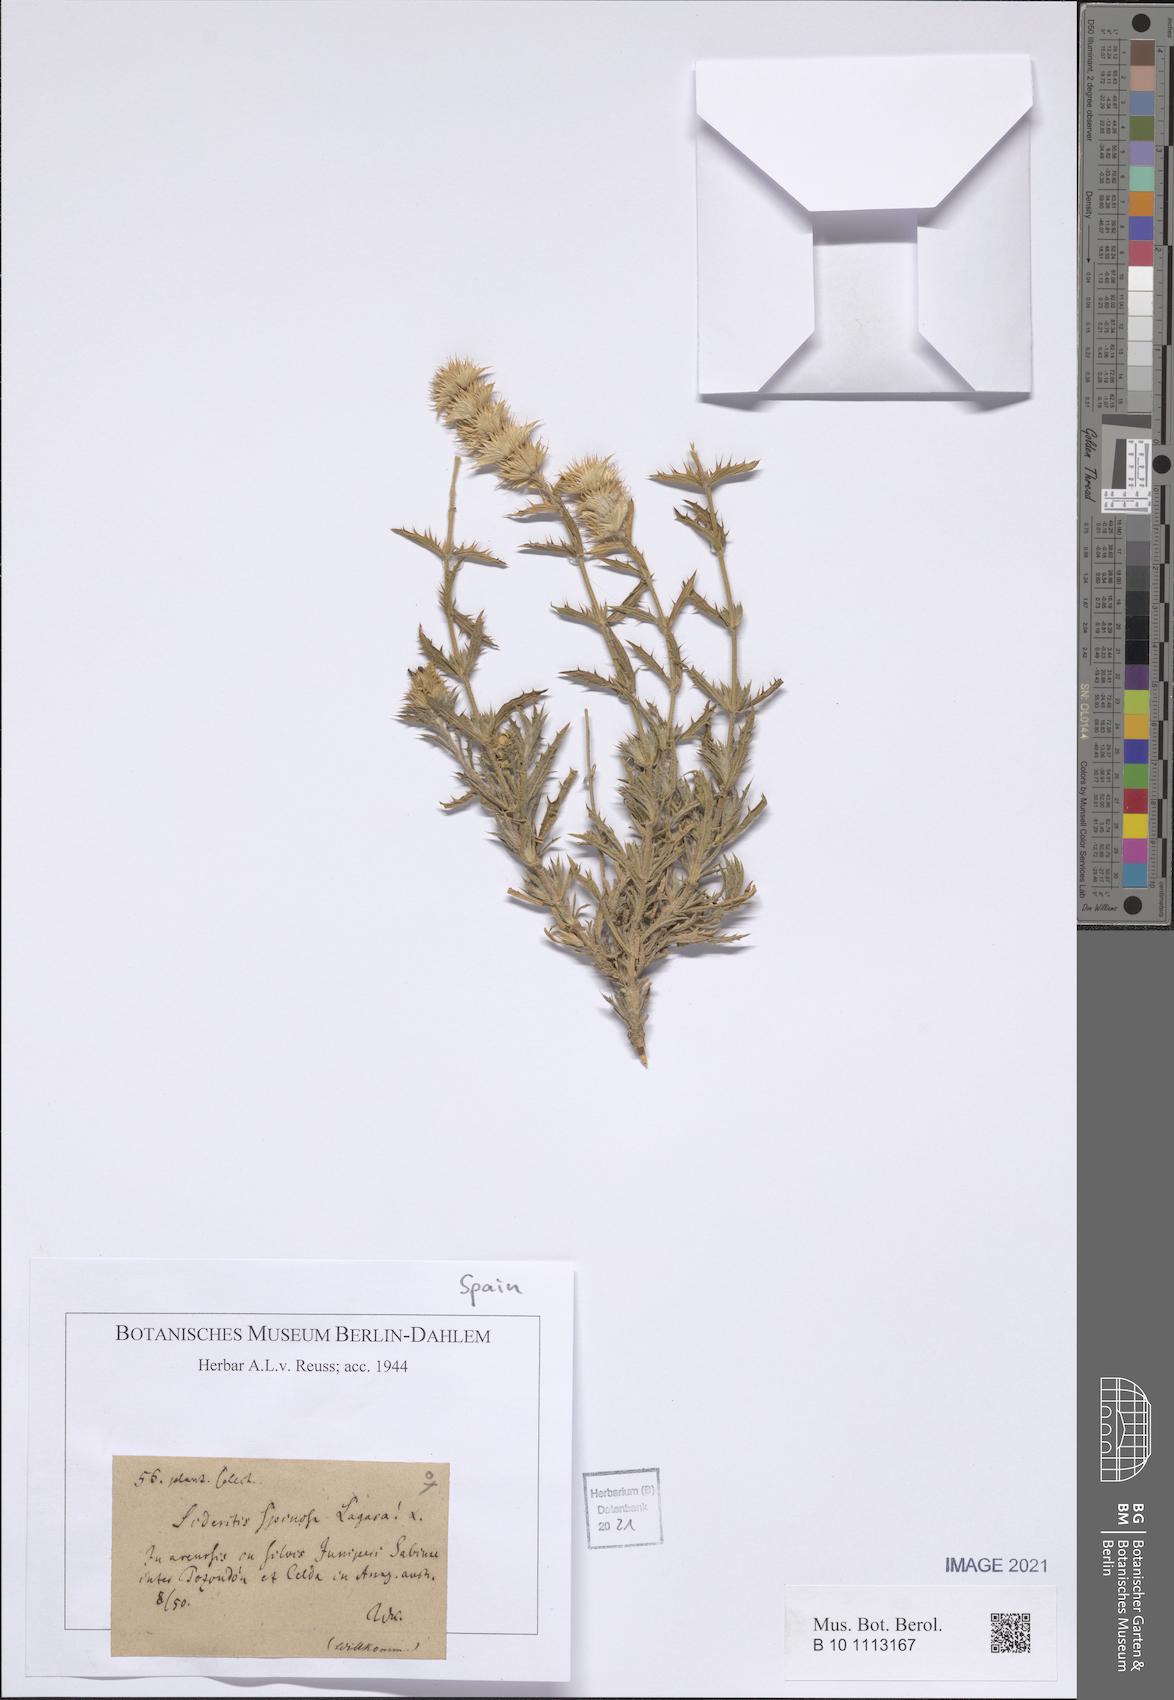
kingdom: Plantae
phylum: Tracheophyta
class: Magnoliopsida
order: Caryophyllales
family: Caryophyllaceae
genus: Stellaria
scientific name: Stellaria cupaniana
